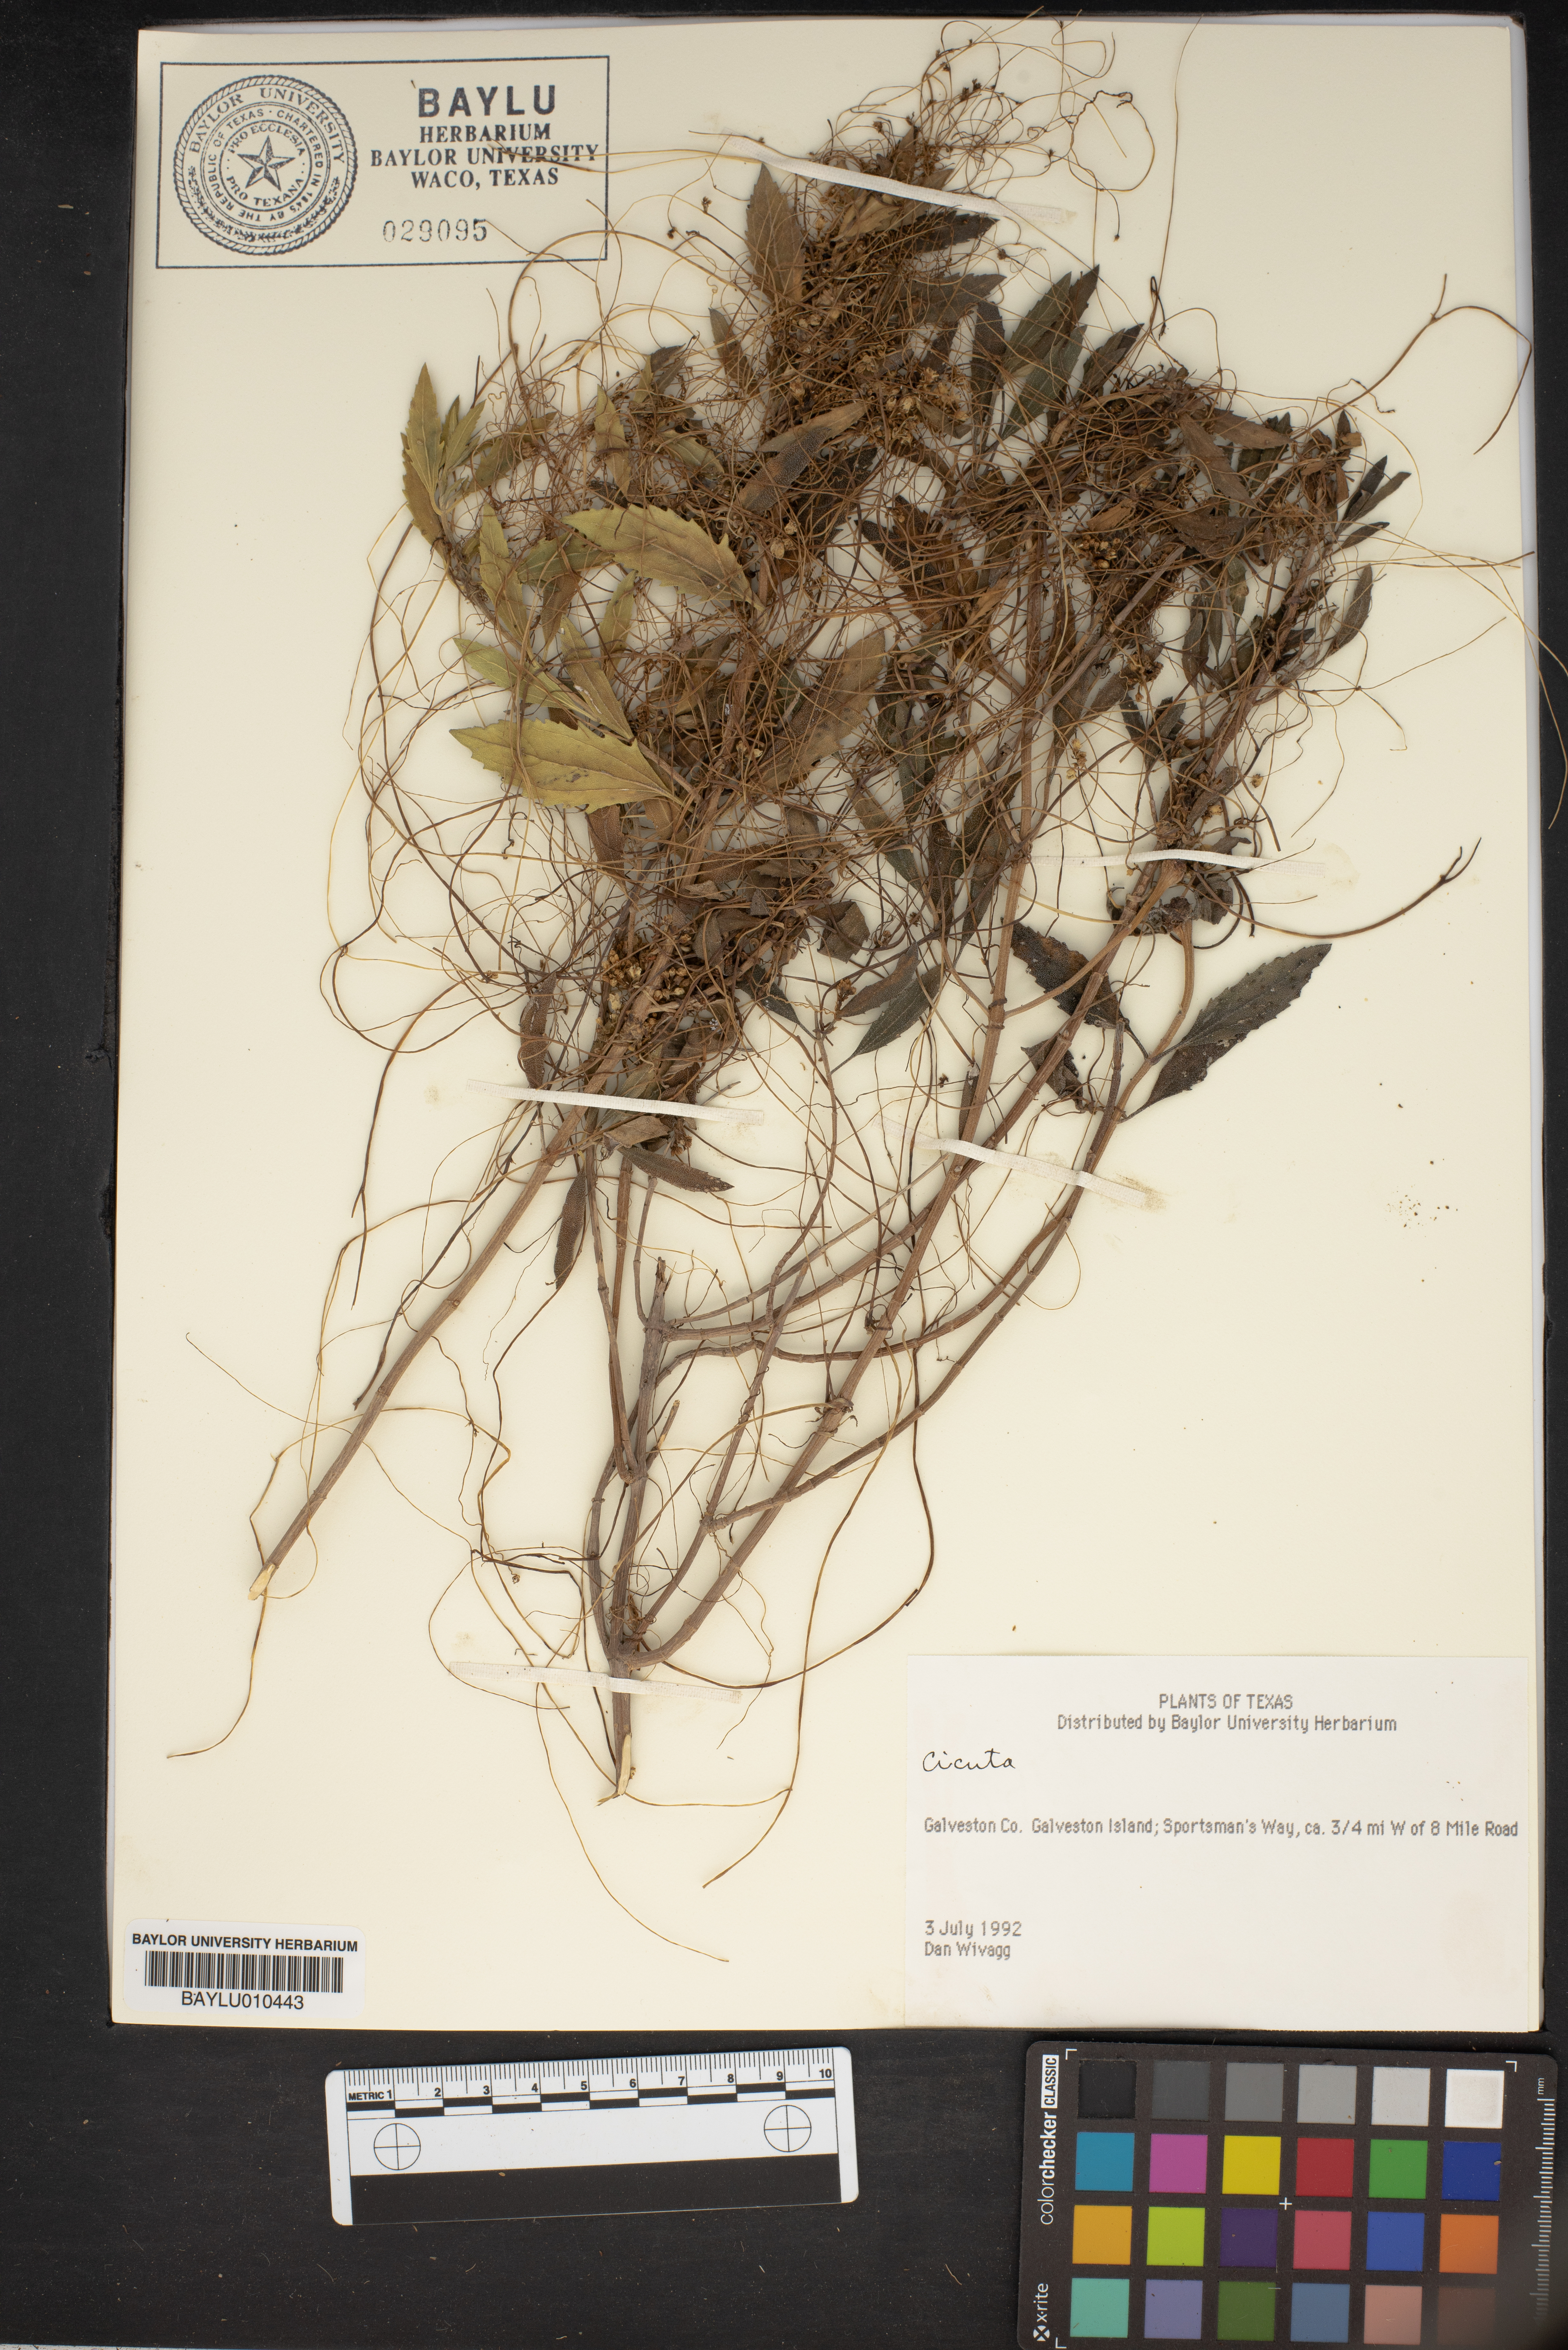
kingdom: Plantae
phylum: Tracheophyta
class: Magnoliopsida
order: Apiales
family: Apiaceae
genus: Cicuta
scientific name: Cicuta
